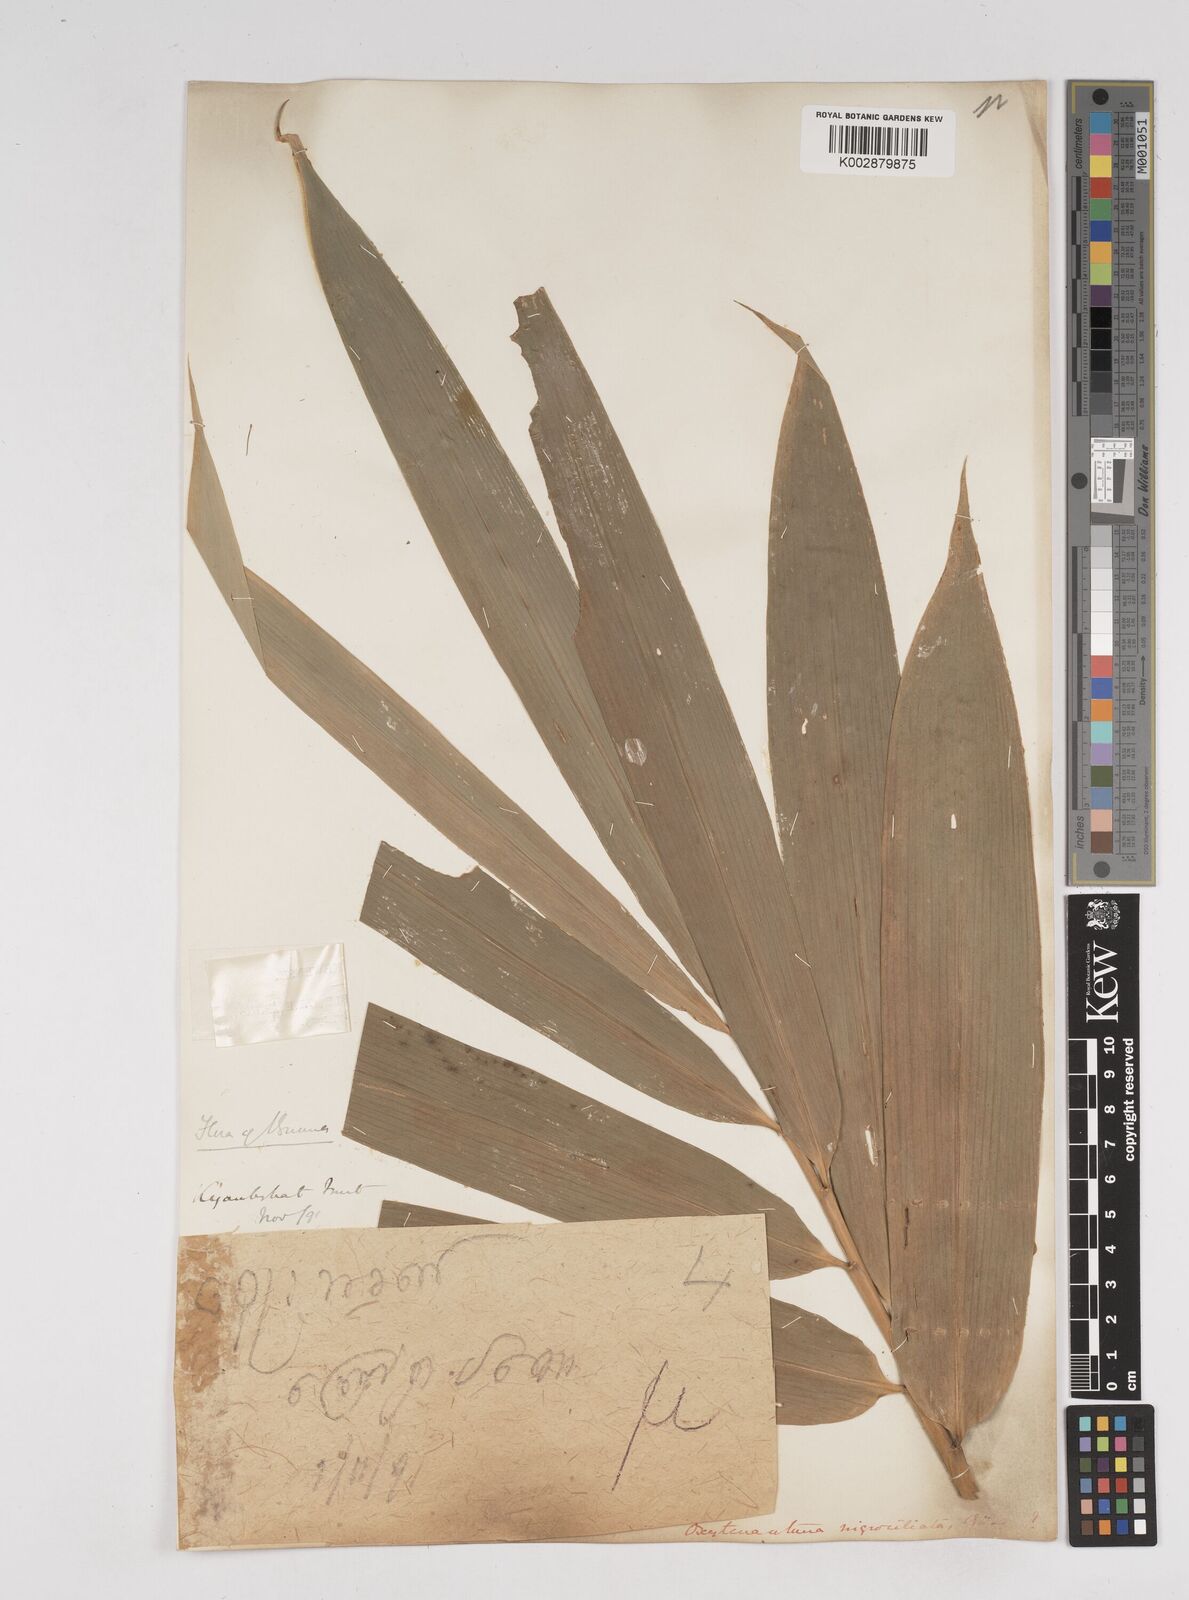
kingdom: Plantae
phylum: Tracheophyta
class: Liliopsida
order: Poales
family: Poaceae
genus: Gigantochloa
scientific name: Gigantochloa
